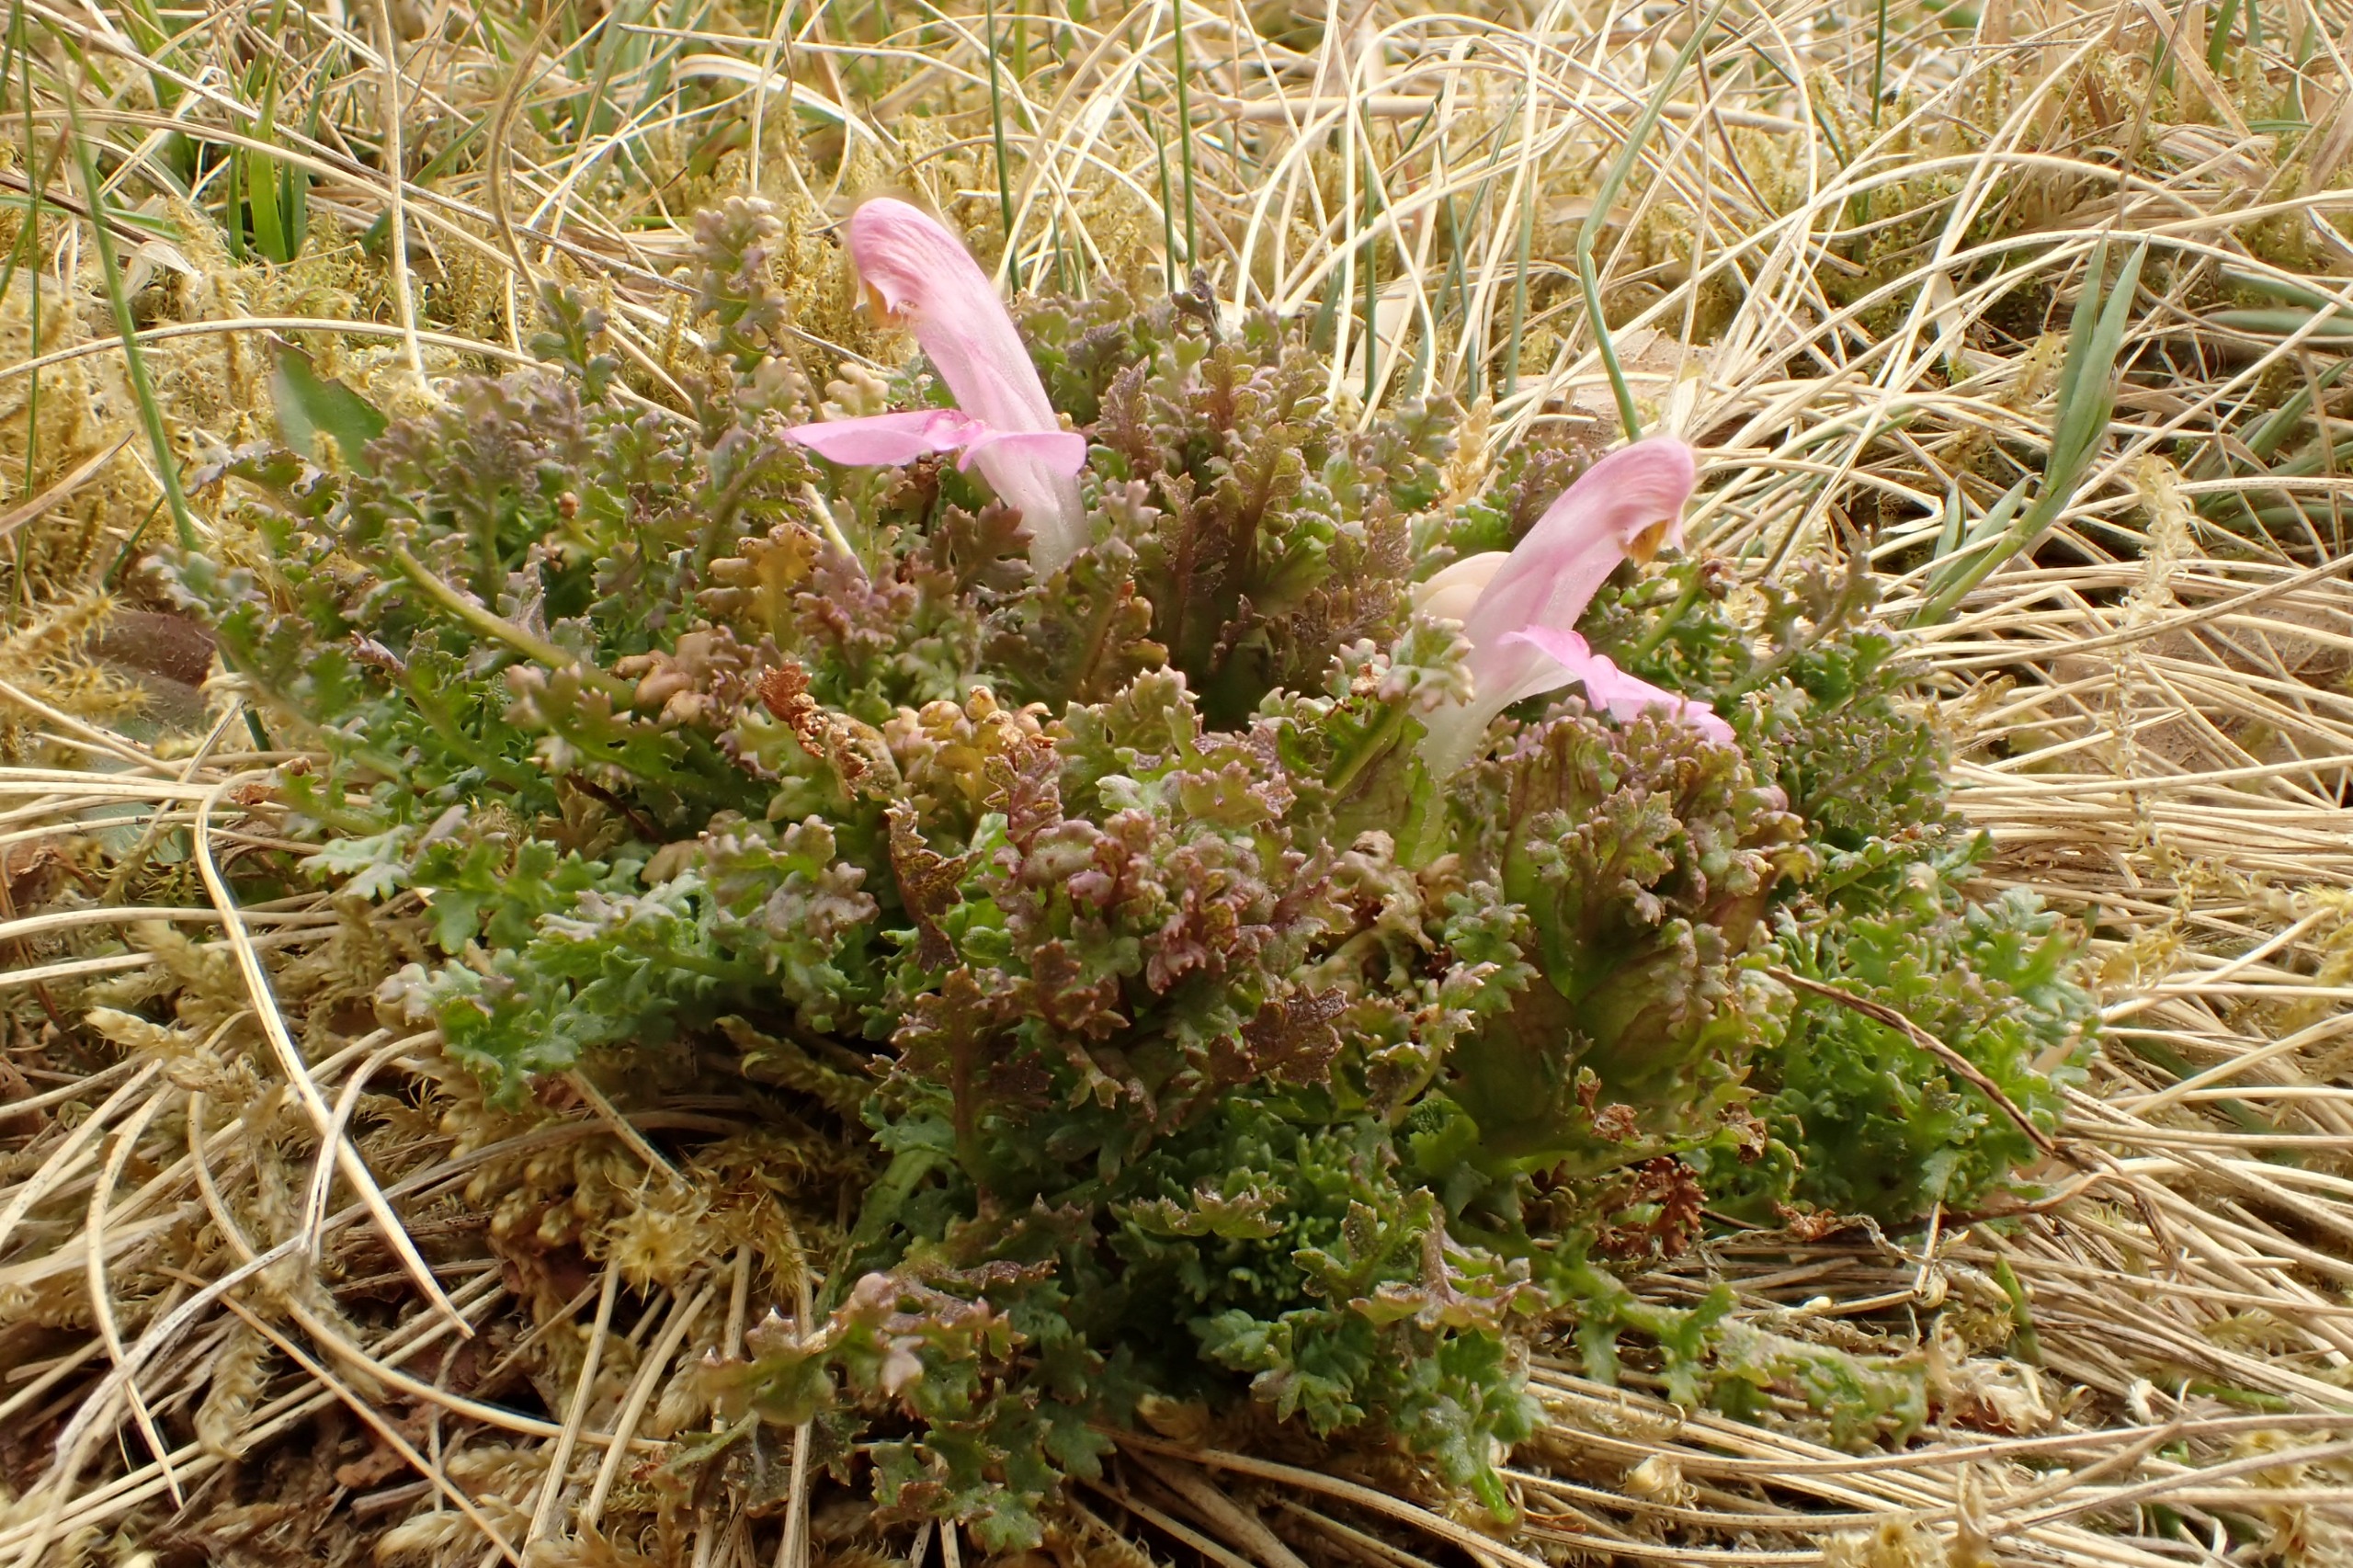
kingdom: Plantae
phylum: Tracheophyta
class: Magnoliopsida
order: Lamiales
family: Orobanchaceae
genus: Pedicularis
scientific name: Pedicularis sylvatica
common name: Mose-troldurt
